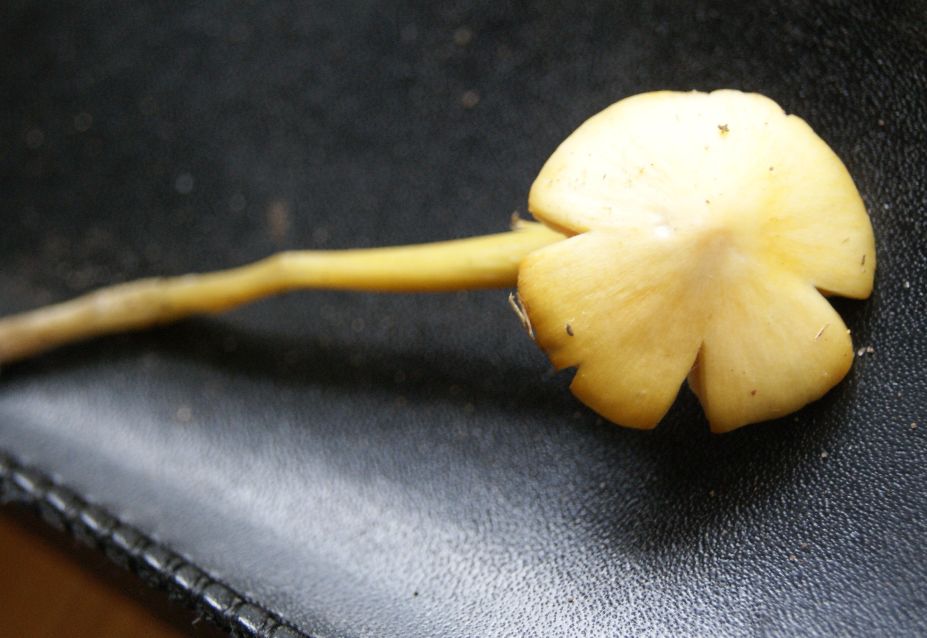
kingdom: Fungi
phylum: Basidiomycota
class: Agaricomycetes
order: Agaricales
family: Hygrophoraceae
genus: Hygrocybe
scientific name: Hygrocybe acutoconica
